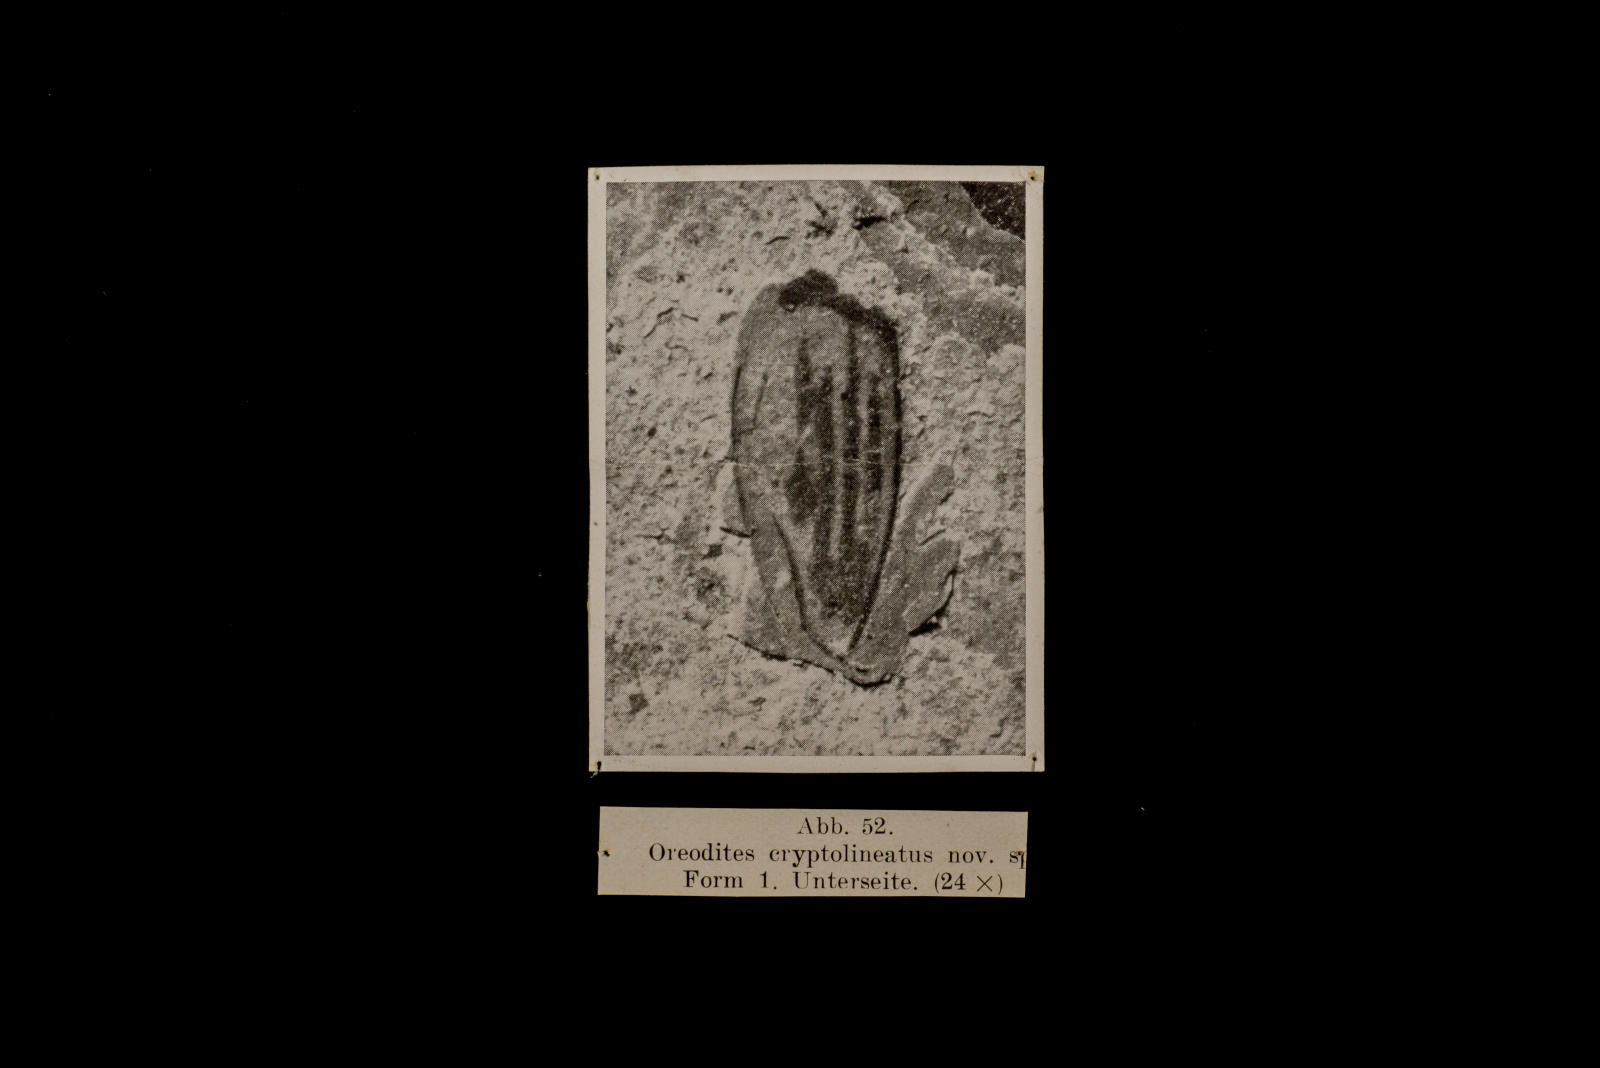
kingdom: Animalia
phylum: Arthropoda
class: Insecta
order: Coleoptera
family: Dytiscidae
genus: Oreodytes
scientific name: Oreodytes cryptolineatus
